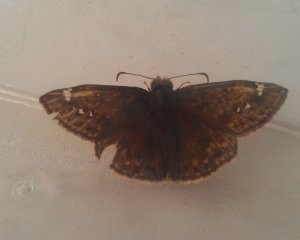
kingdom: Animalia
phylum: Arthropoda
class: Insecta
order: Lepidoptera
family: Hesperiidae
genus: Gesta
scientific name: Gesta
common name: Juvenal's Duskywing
